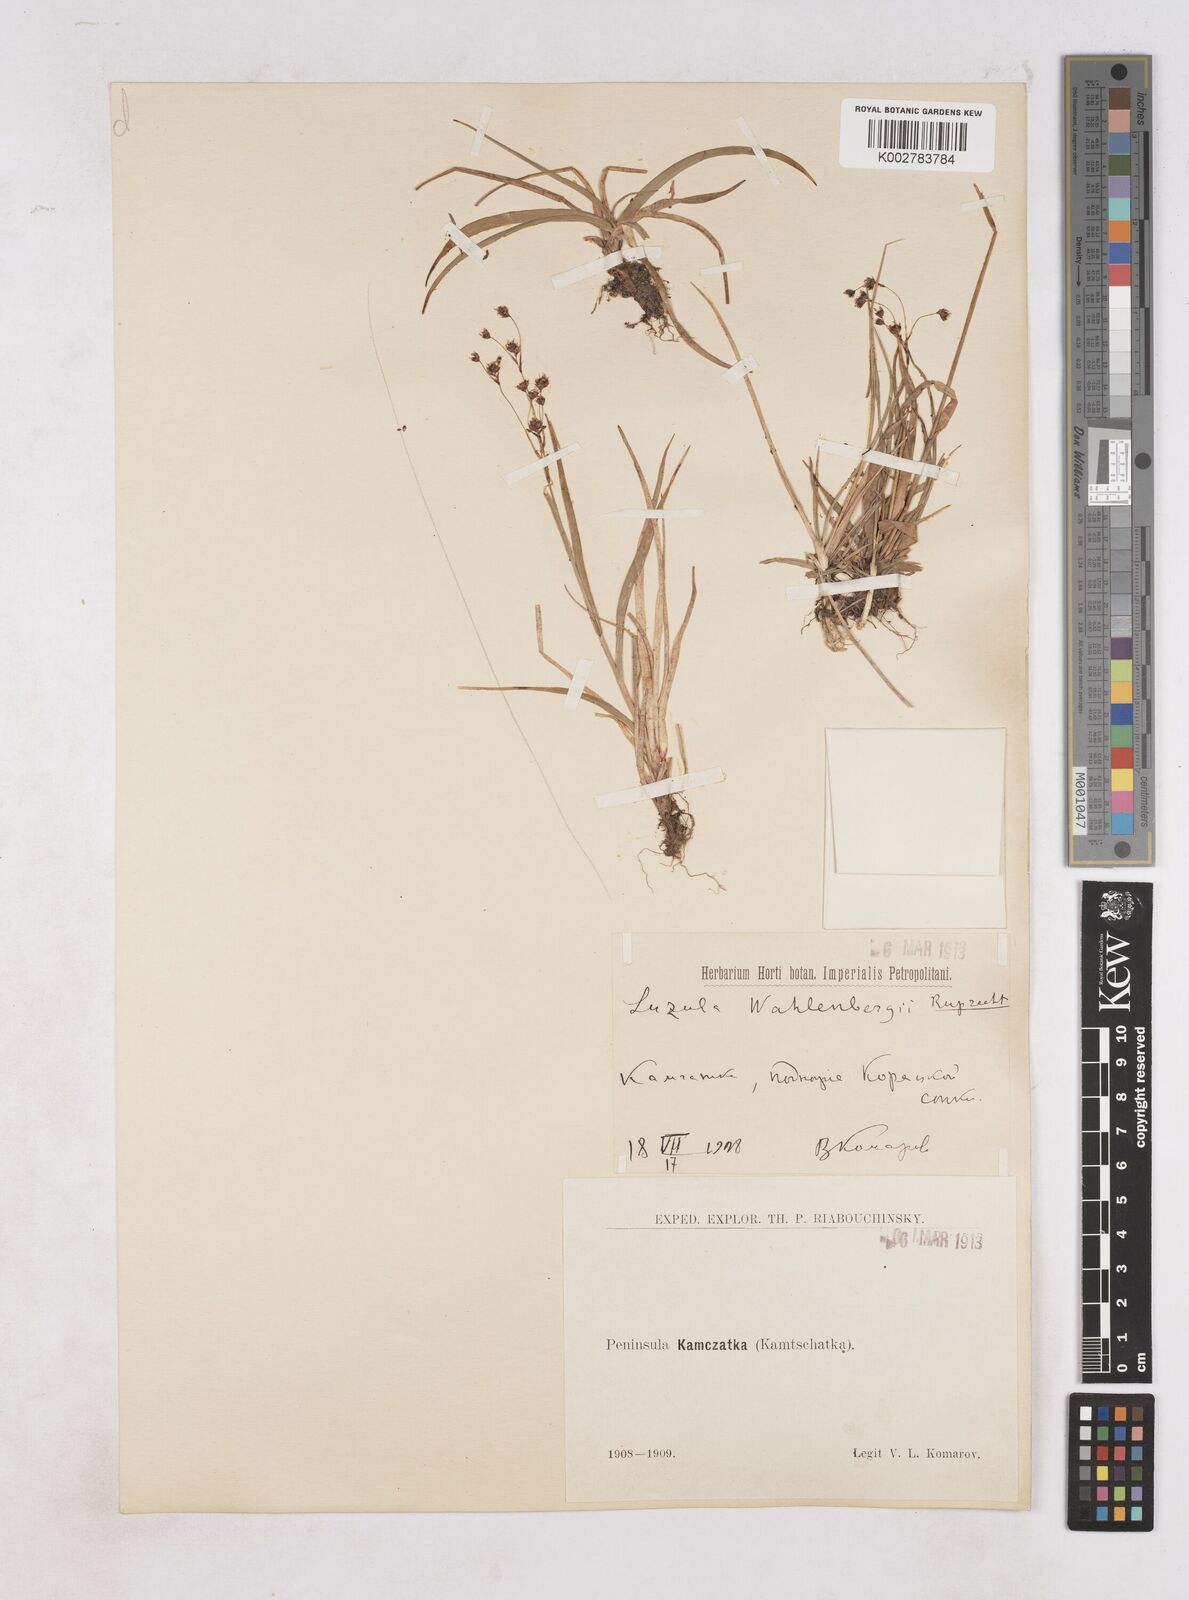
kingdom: Plantae
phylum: Tracheophyta
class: Liliopsida
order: Poales
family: Juncaceae
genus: Luzula
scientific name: Luzula wahlenbergii
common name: Wahlenberg's wood-rush
